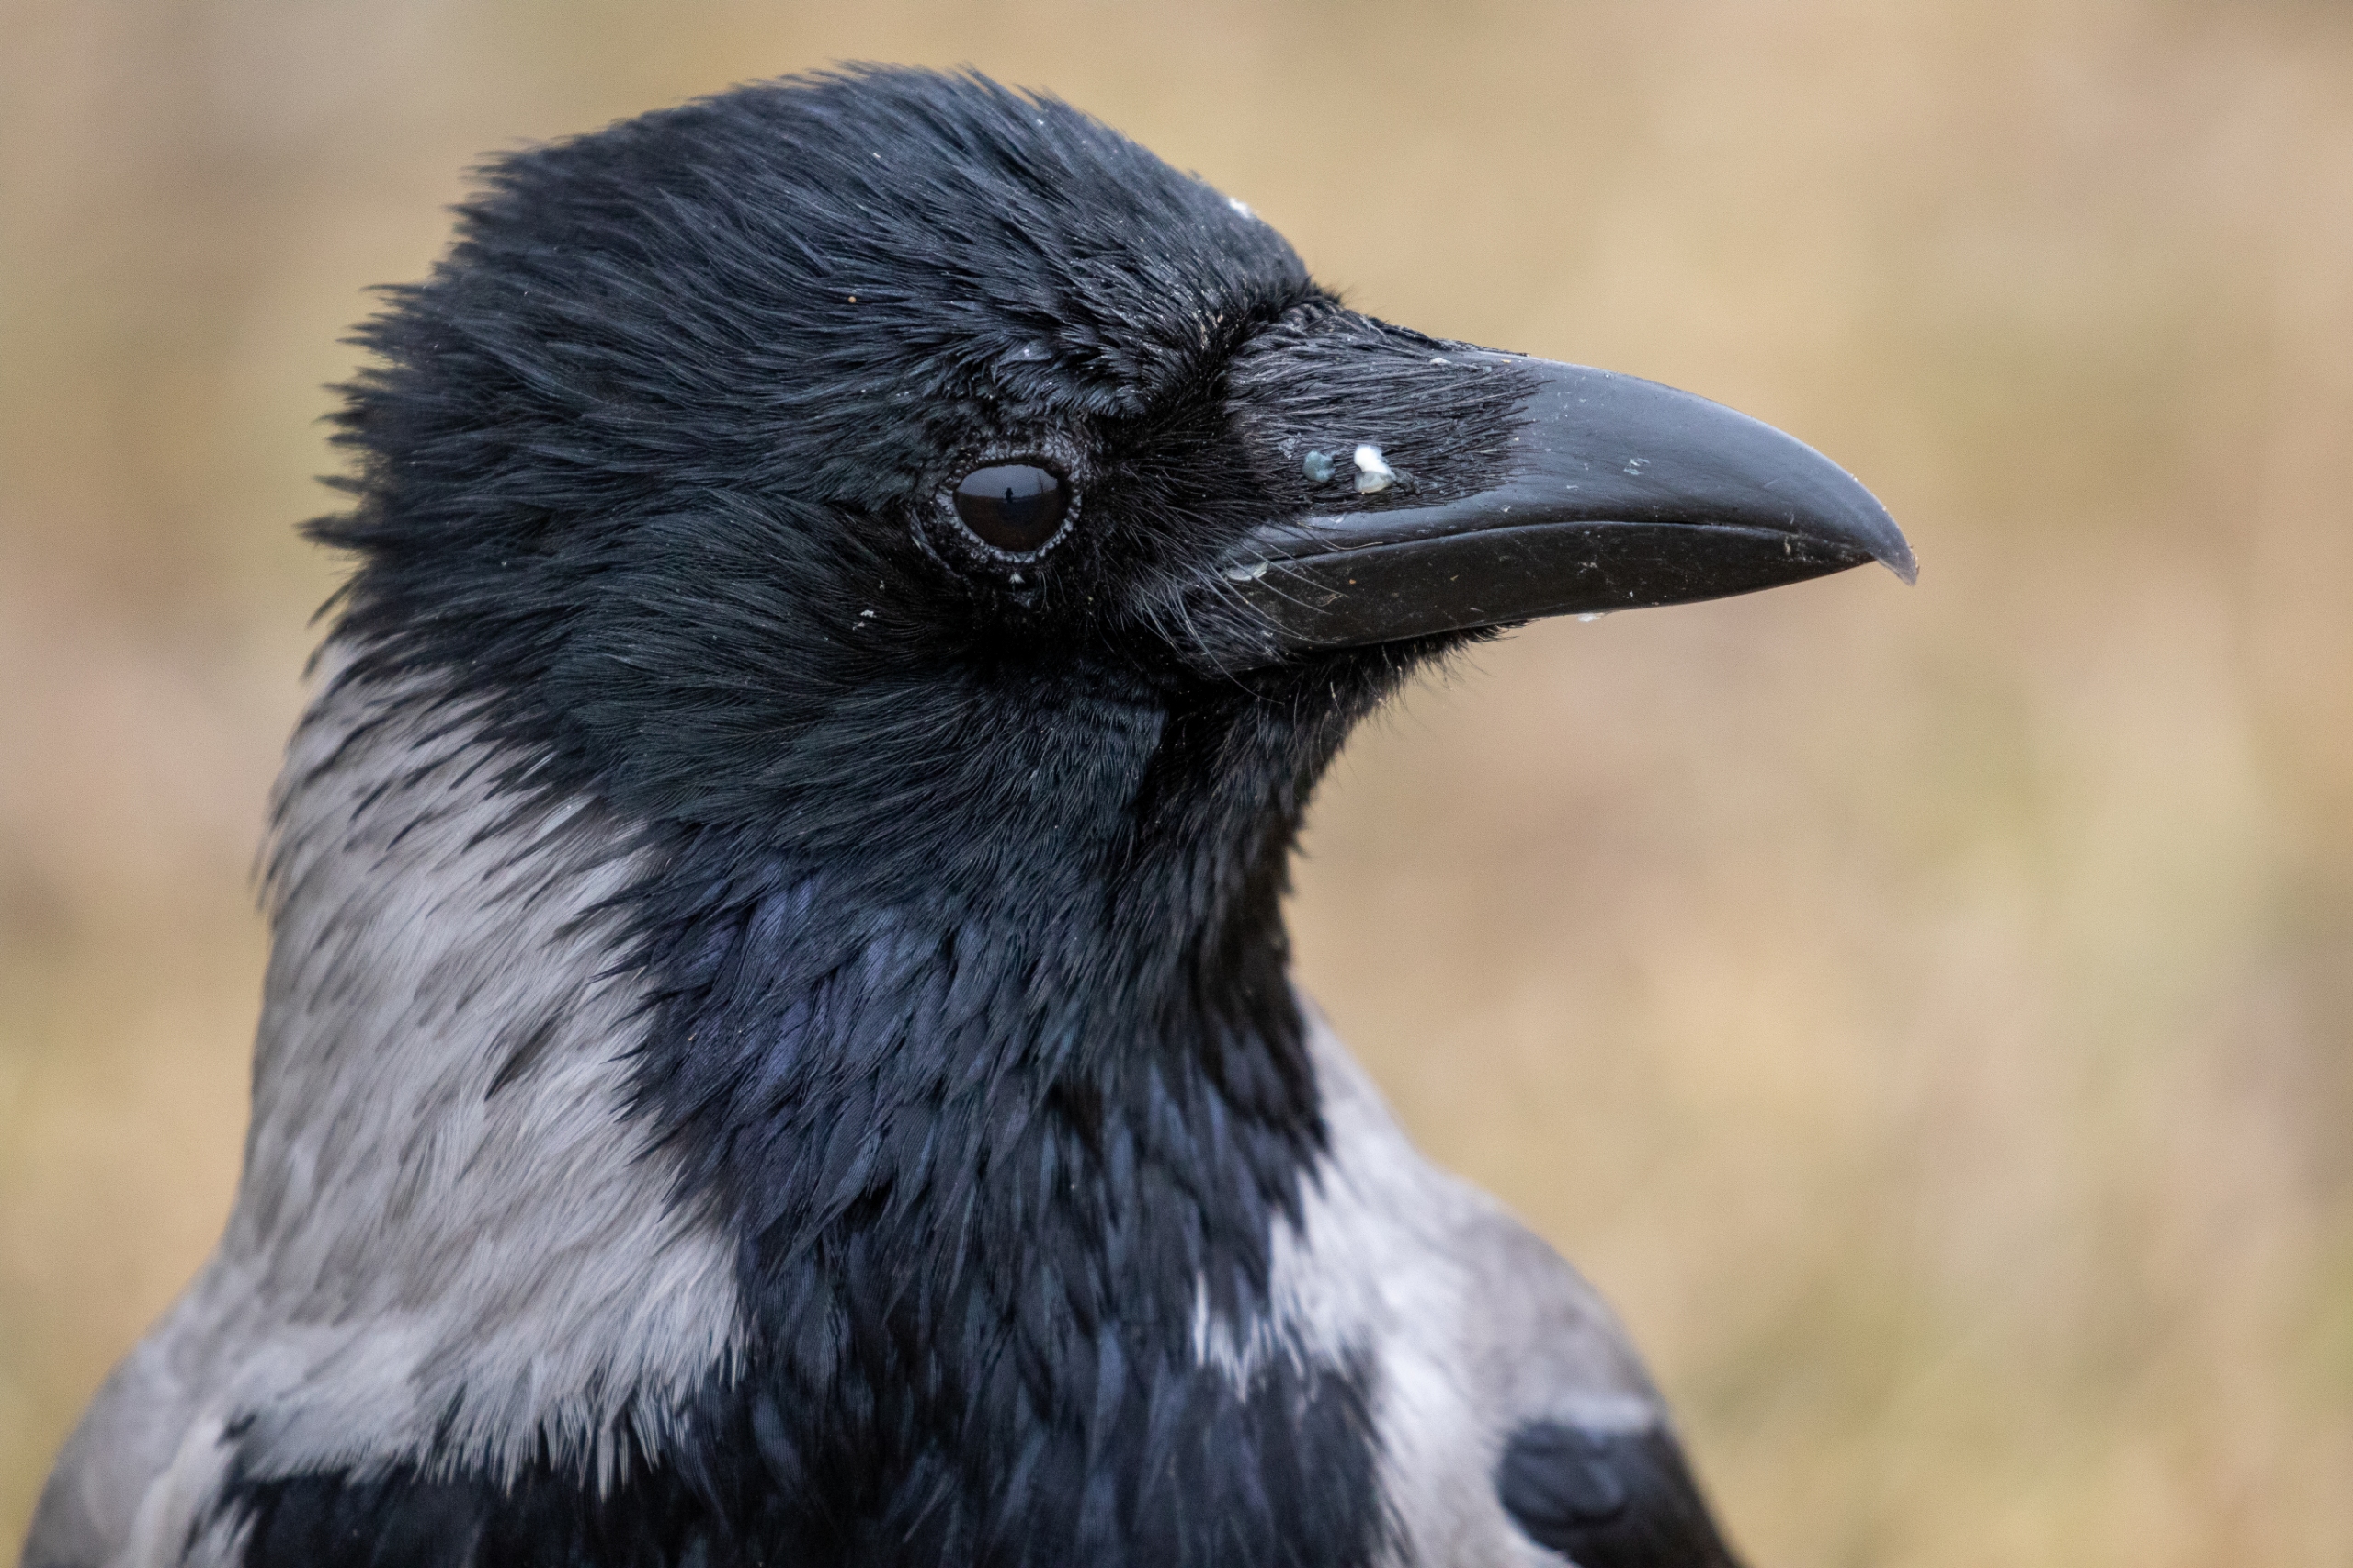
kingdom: Animalia
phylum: Chordata
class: Aves
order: Passeriformes
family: Corvidae
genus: Corvus
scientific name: Corvus cornix
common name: Gråkrage
